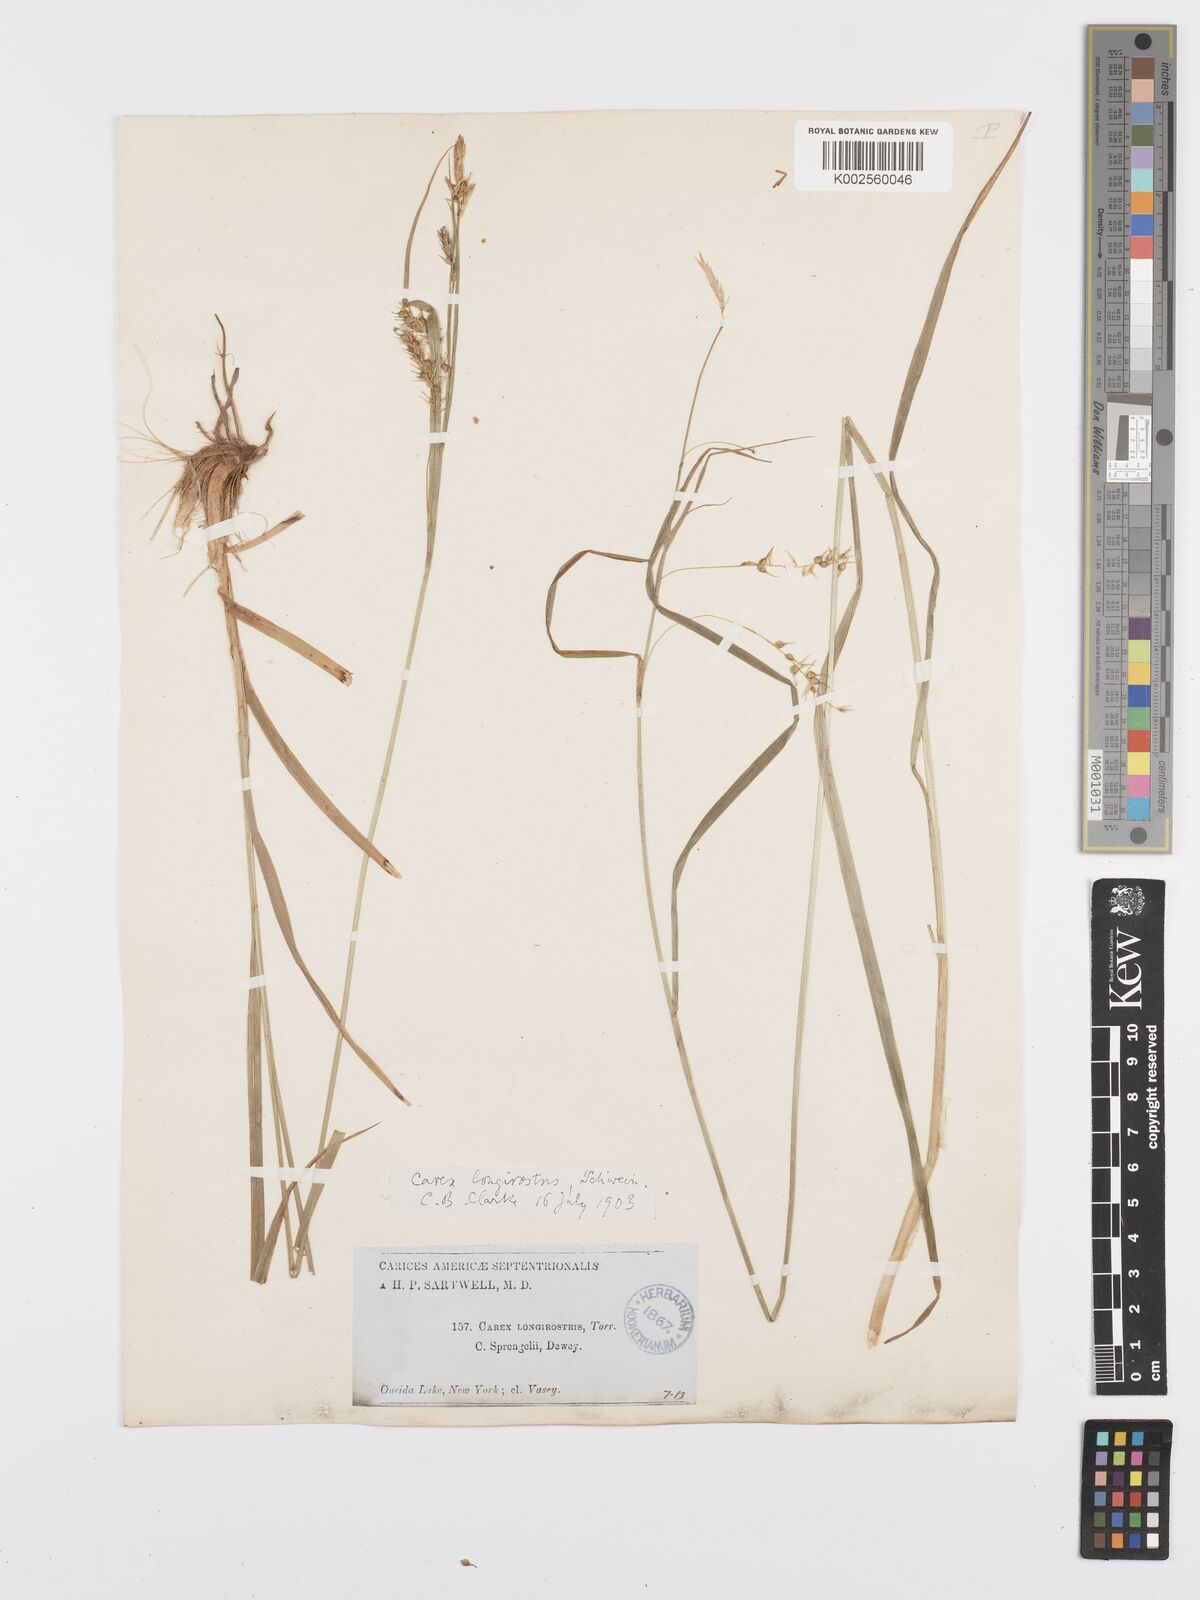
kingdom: Plantae
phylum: Tracheophyta
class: Liliopsida
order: Poales
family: Cyperaceae
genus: Carex
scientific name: Carex sprengelii
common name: Long-beaked sedge
